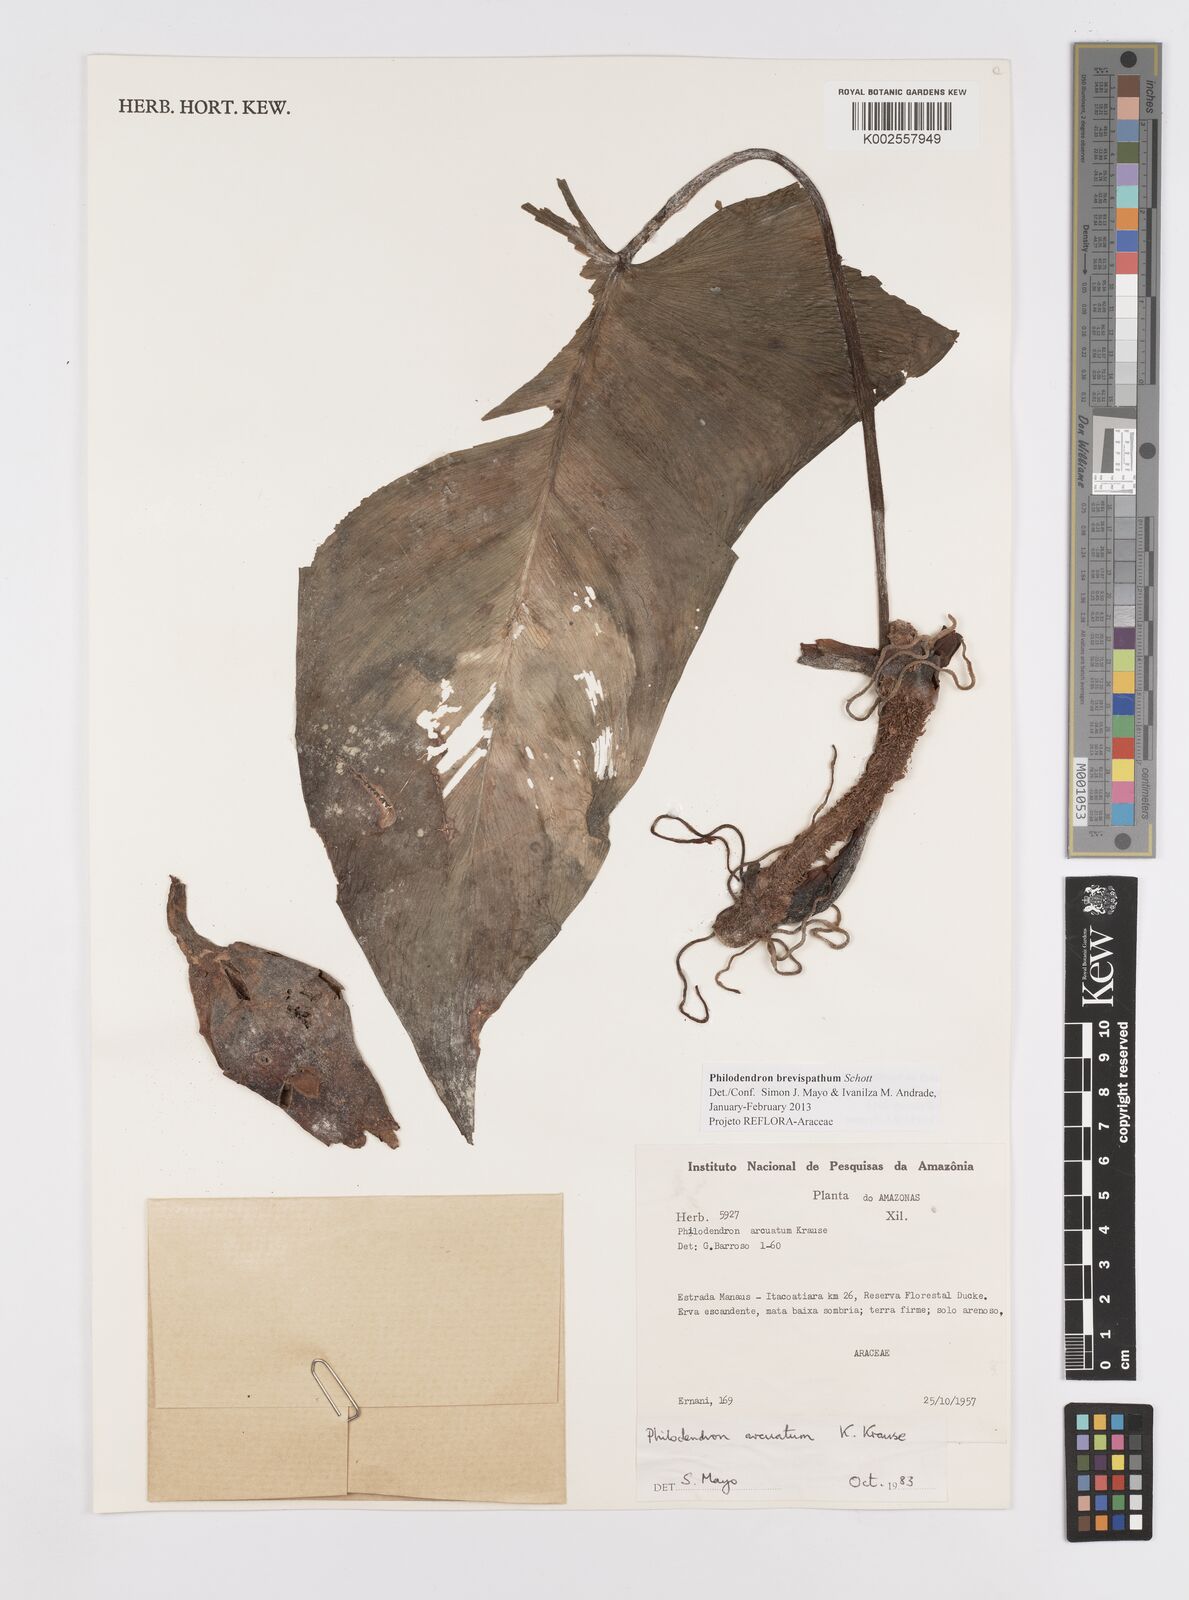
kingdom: Plantae
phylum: Tracheophyta
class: Liliopsida
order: Alismatales
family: Araceae
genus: Philodendron
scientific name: Philodendron brevispathum
